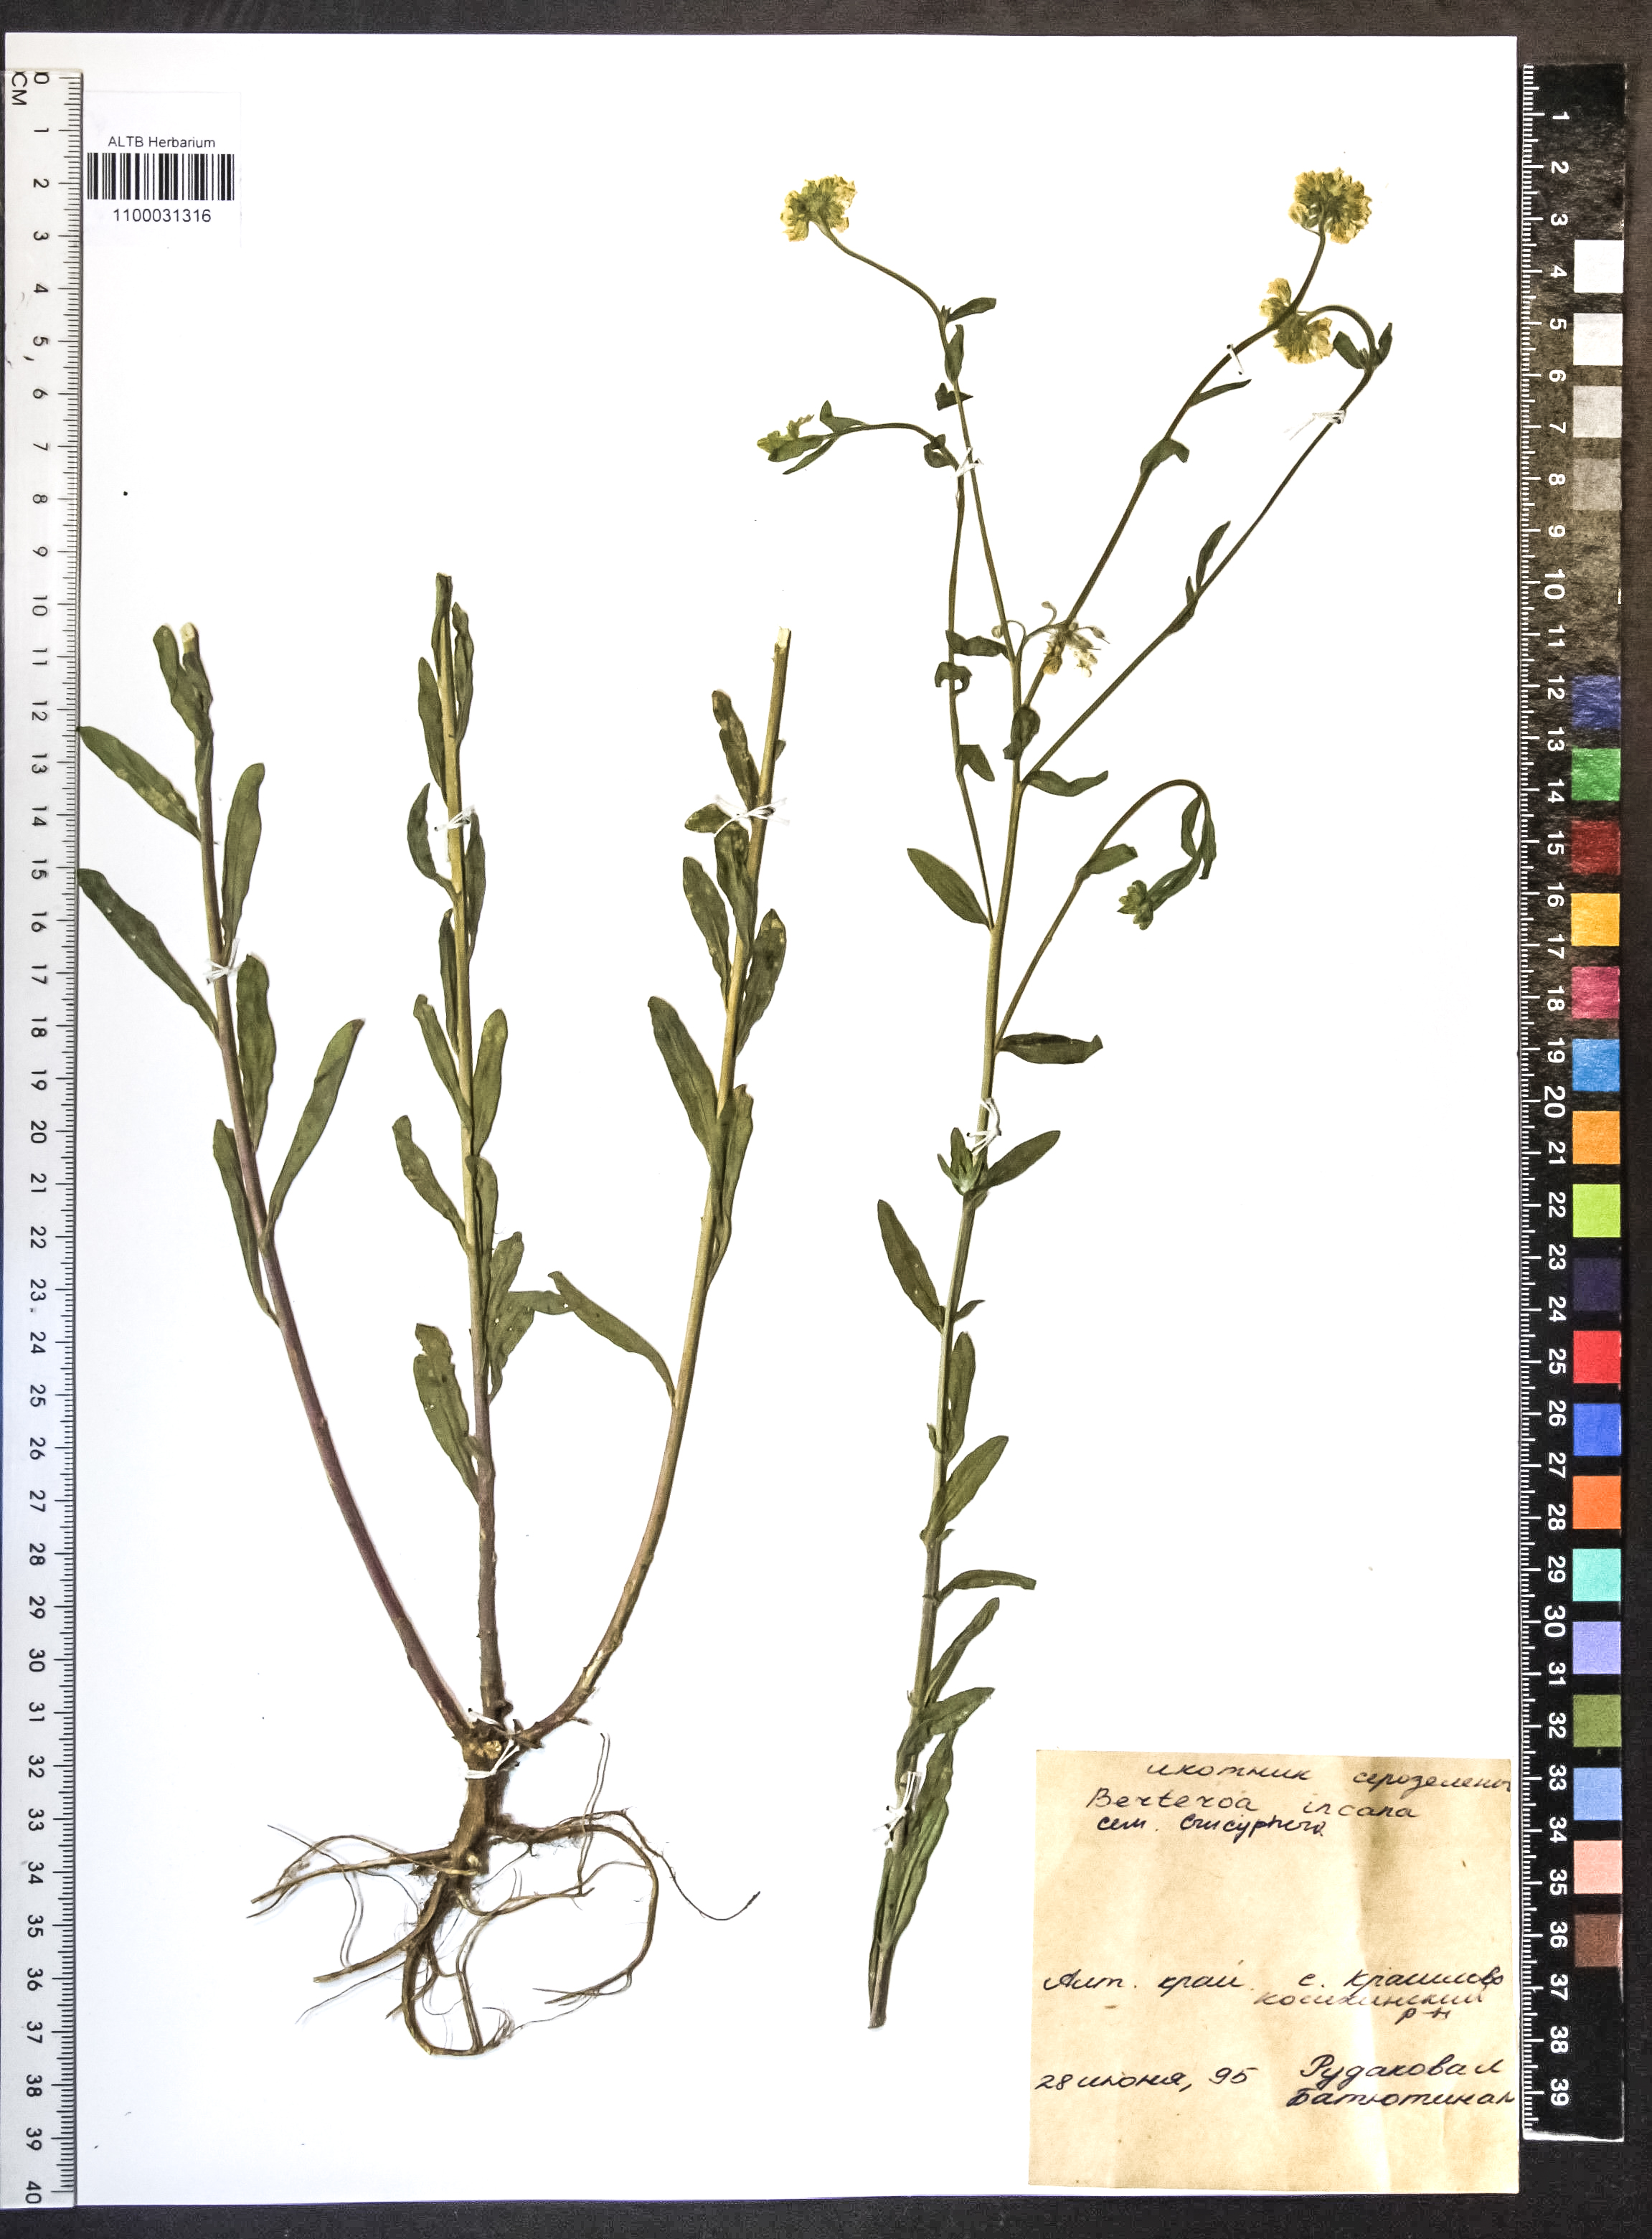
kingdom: Plantae
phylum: Tracheophyta
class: Magnoliopsida
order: Brassicales
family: Brassicaceae
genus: Berteroa
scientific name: Berteroa incana
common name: Hoary alison
